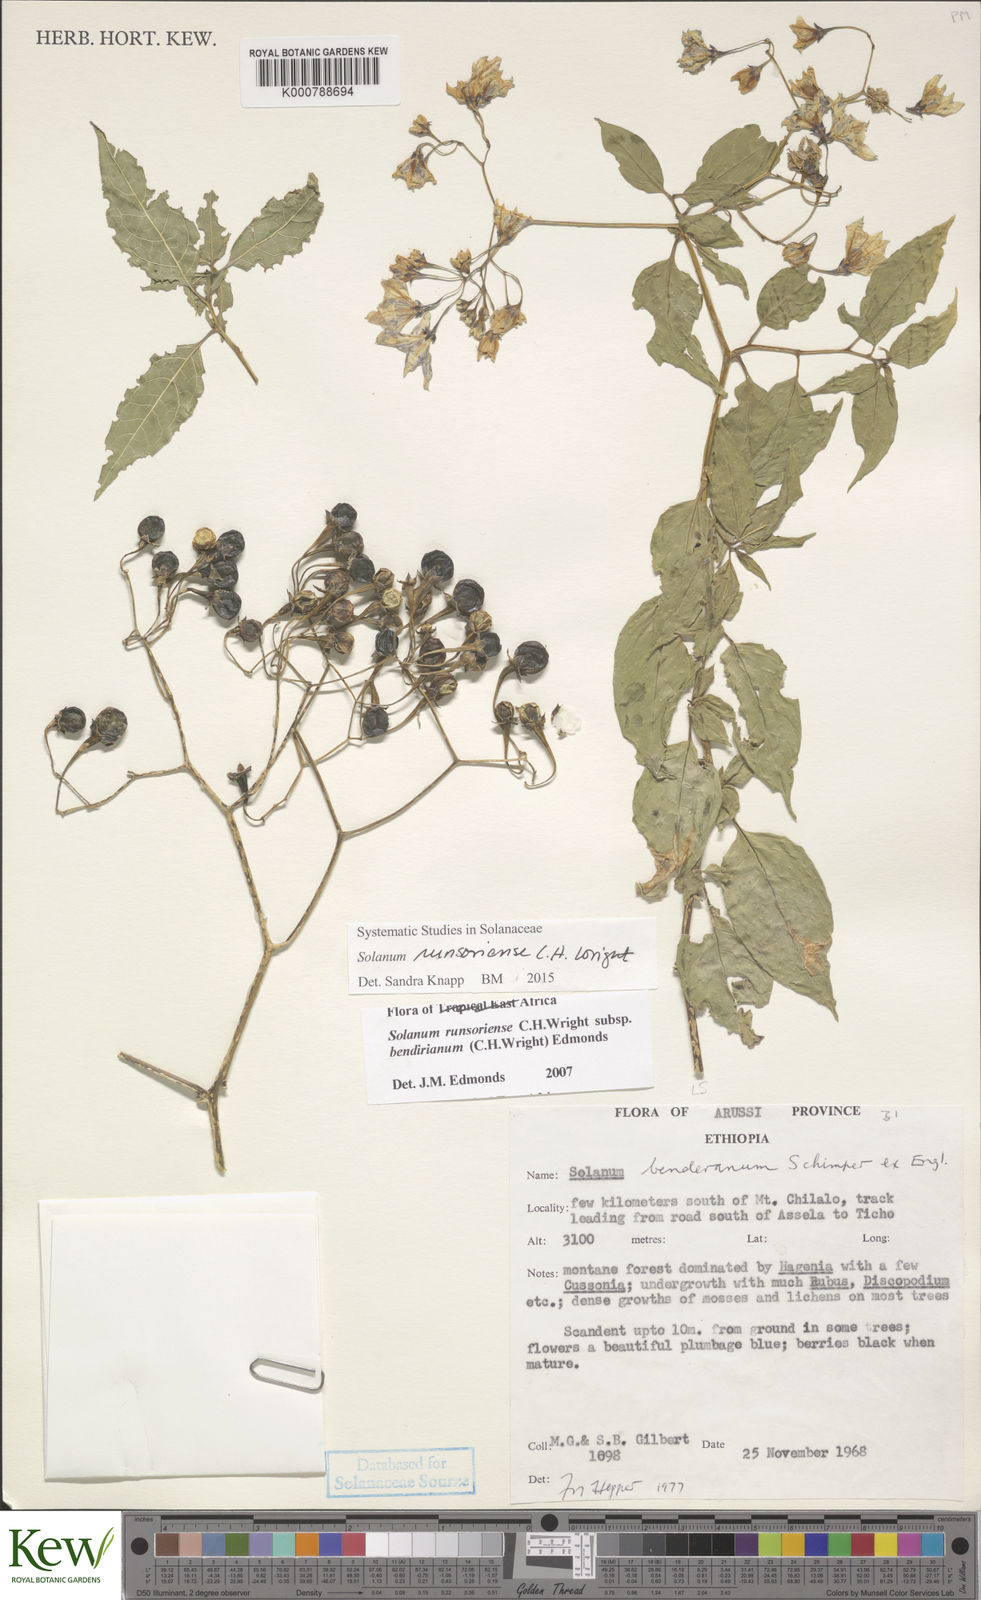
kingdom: Plantae
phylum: Tracheophyta
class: Magnoliopsida
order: Solanales
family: Solanaceae
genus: Solanum
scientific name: Solanum runsoriense
